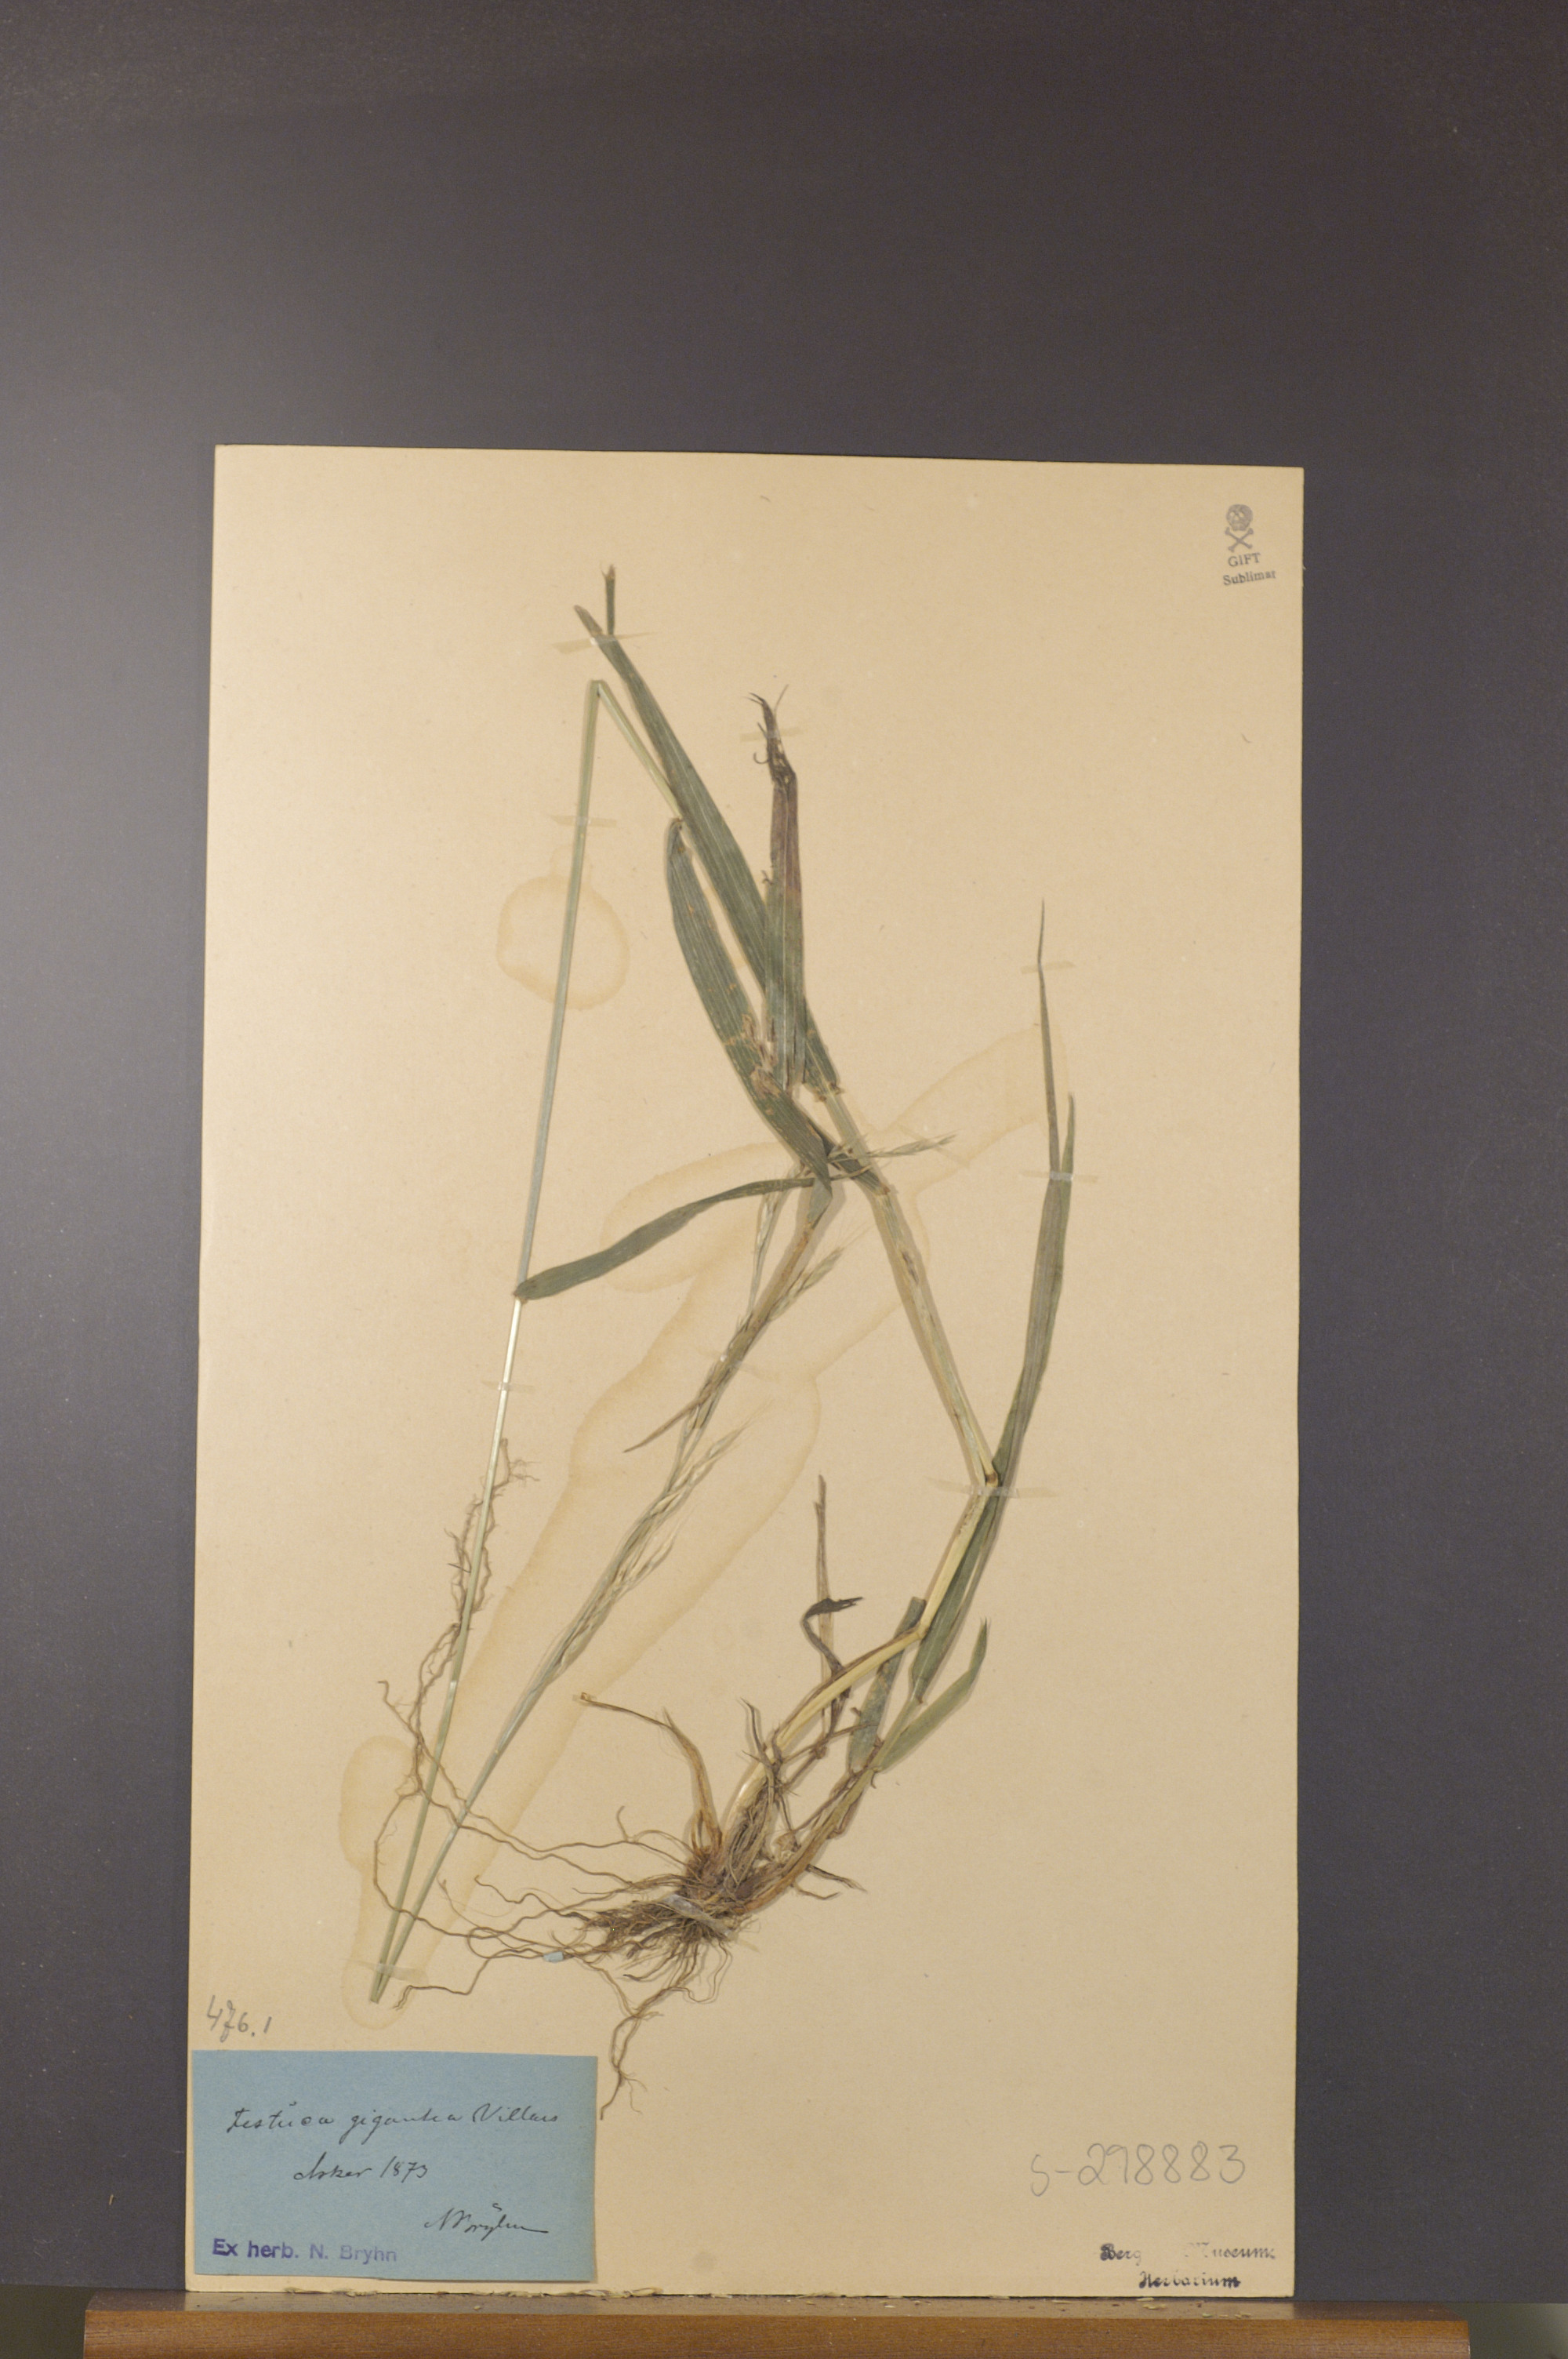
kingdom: Plantae
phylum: Tracheophyta
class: Liliopsida
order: Poales
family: Poaceae
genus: Lolium
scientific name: Lolium giganteum
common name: Giant fescue
